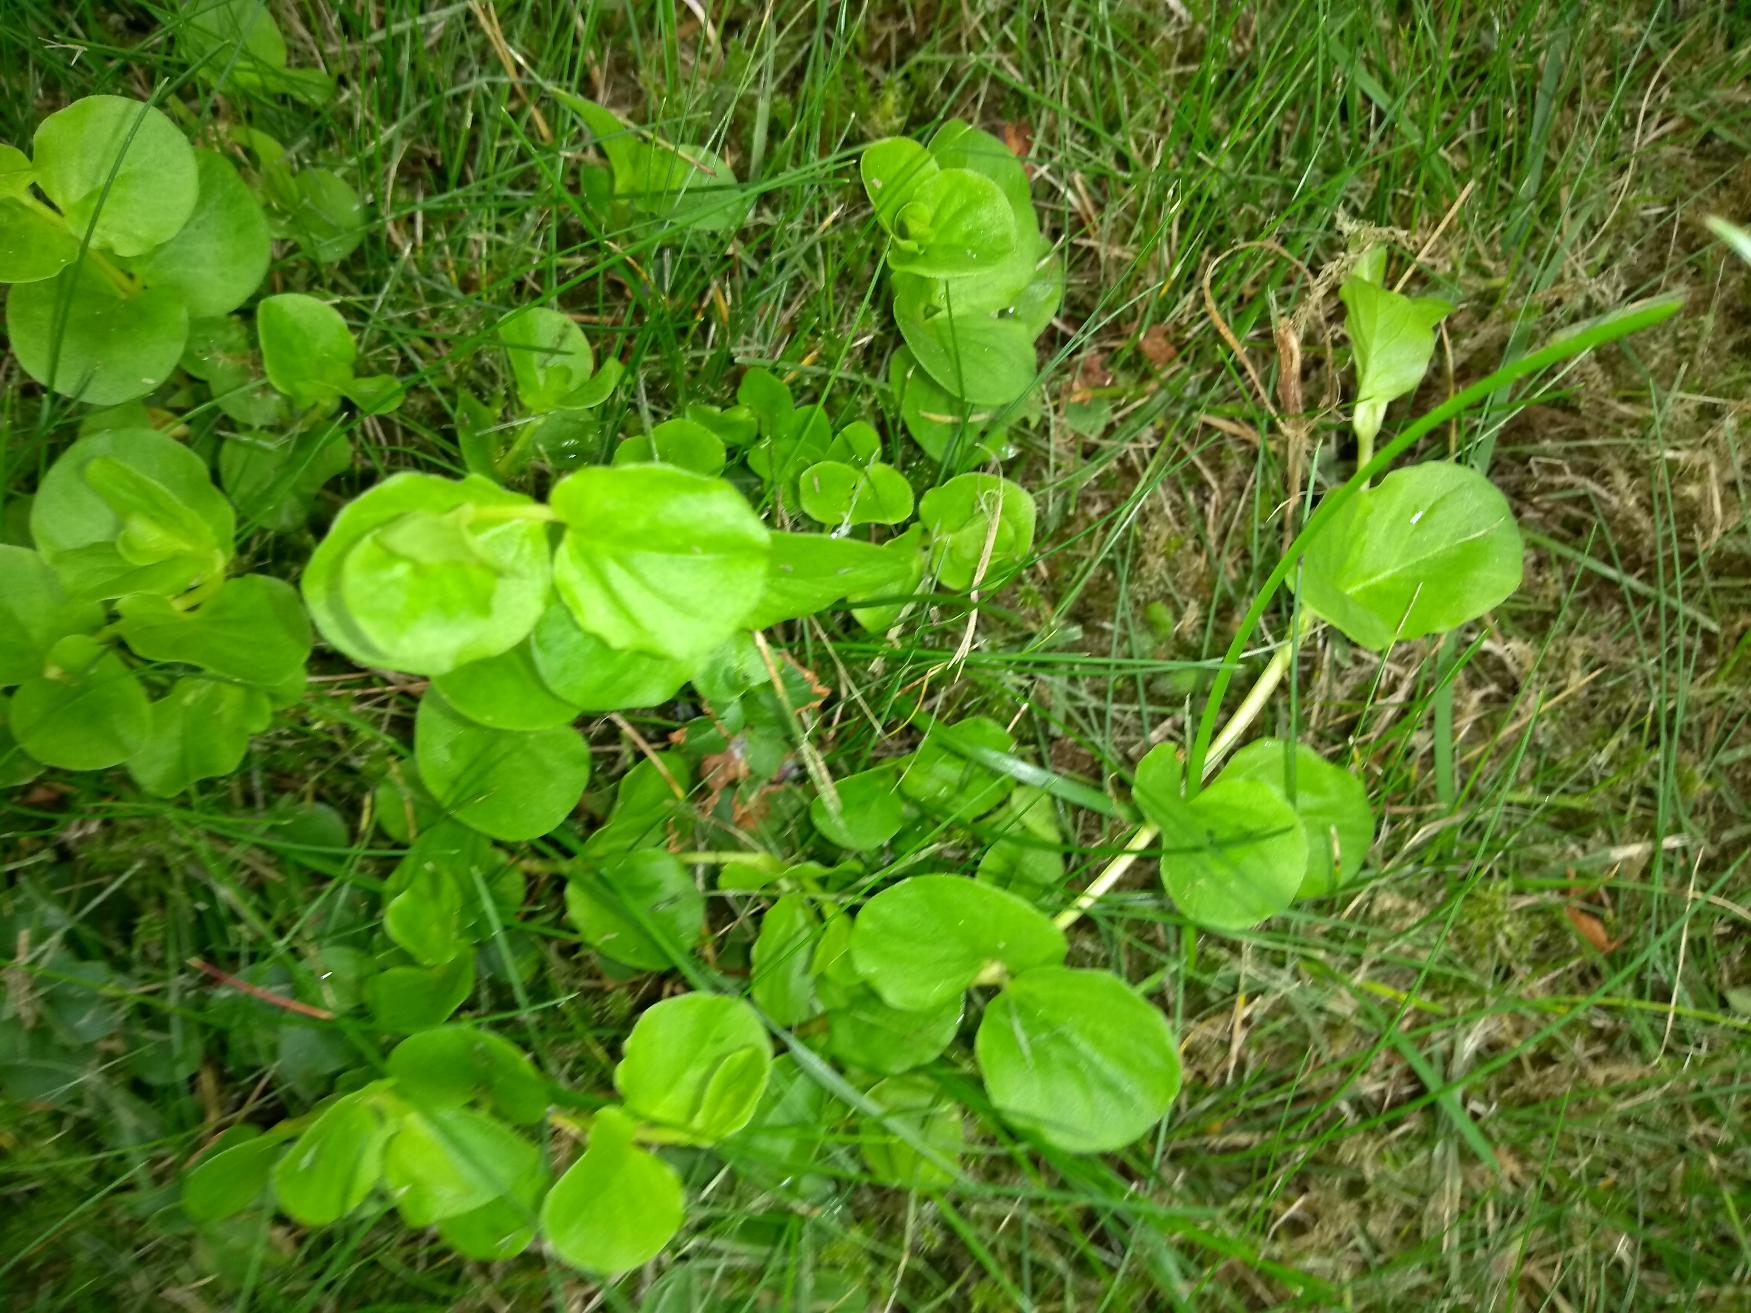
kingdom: Plantae
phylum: Tracheophyta
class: Magnoliopsida
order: Ericales
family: Primulaceae
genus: Lysimachia
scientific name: Lysimachia nummularia
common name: Pengebladet fredløs
